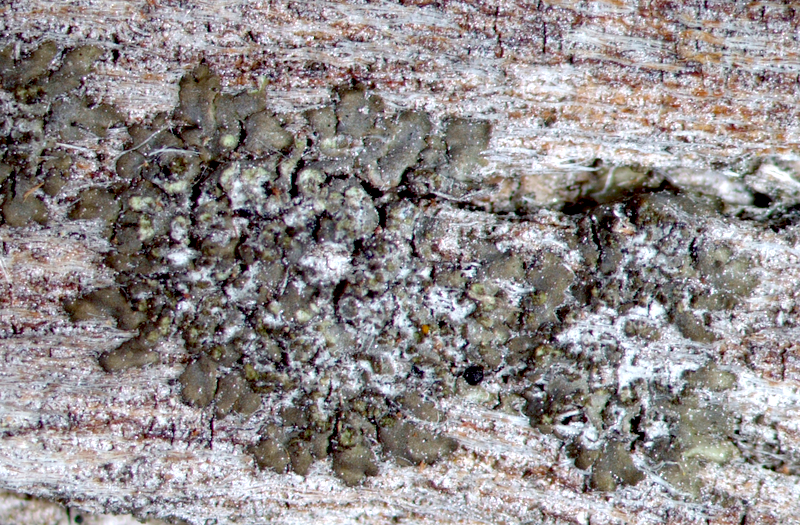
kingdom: Fungi
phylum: Ascomycota
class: Lecanoromycetes
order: Caliciales
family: Physciaceae
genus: Hyperphyscia
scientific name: Hyperphyscia adglutinata
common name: Grainy shadow-crust lichen
